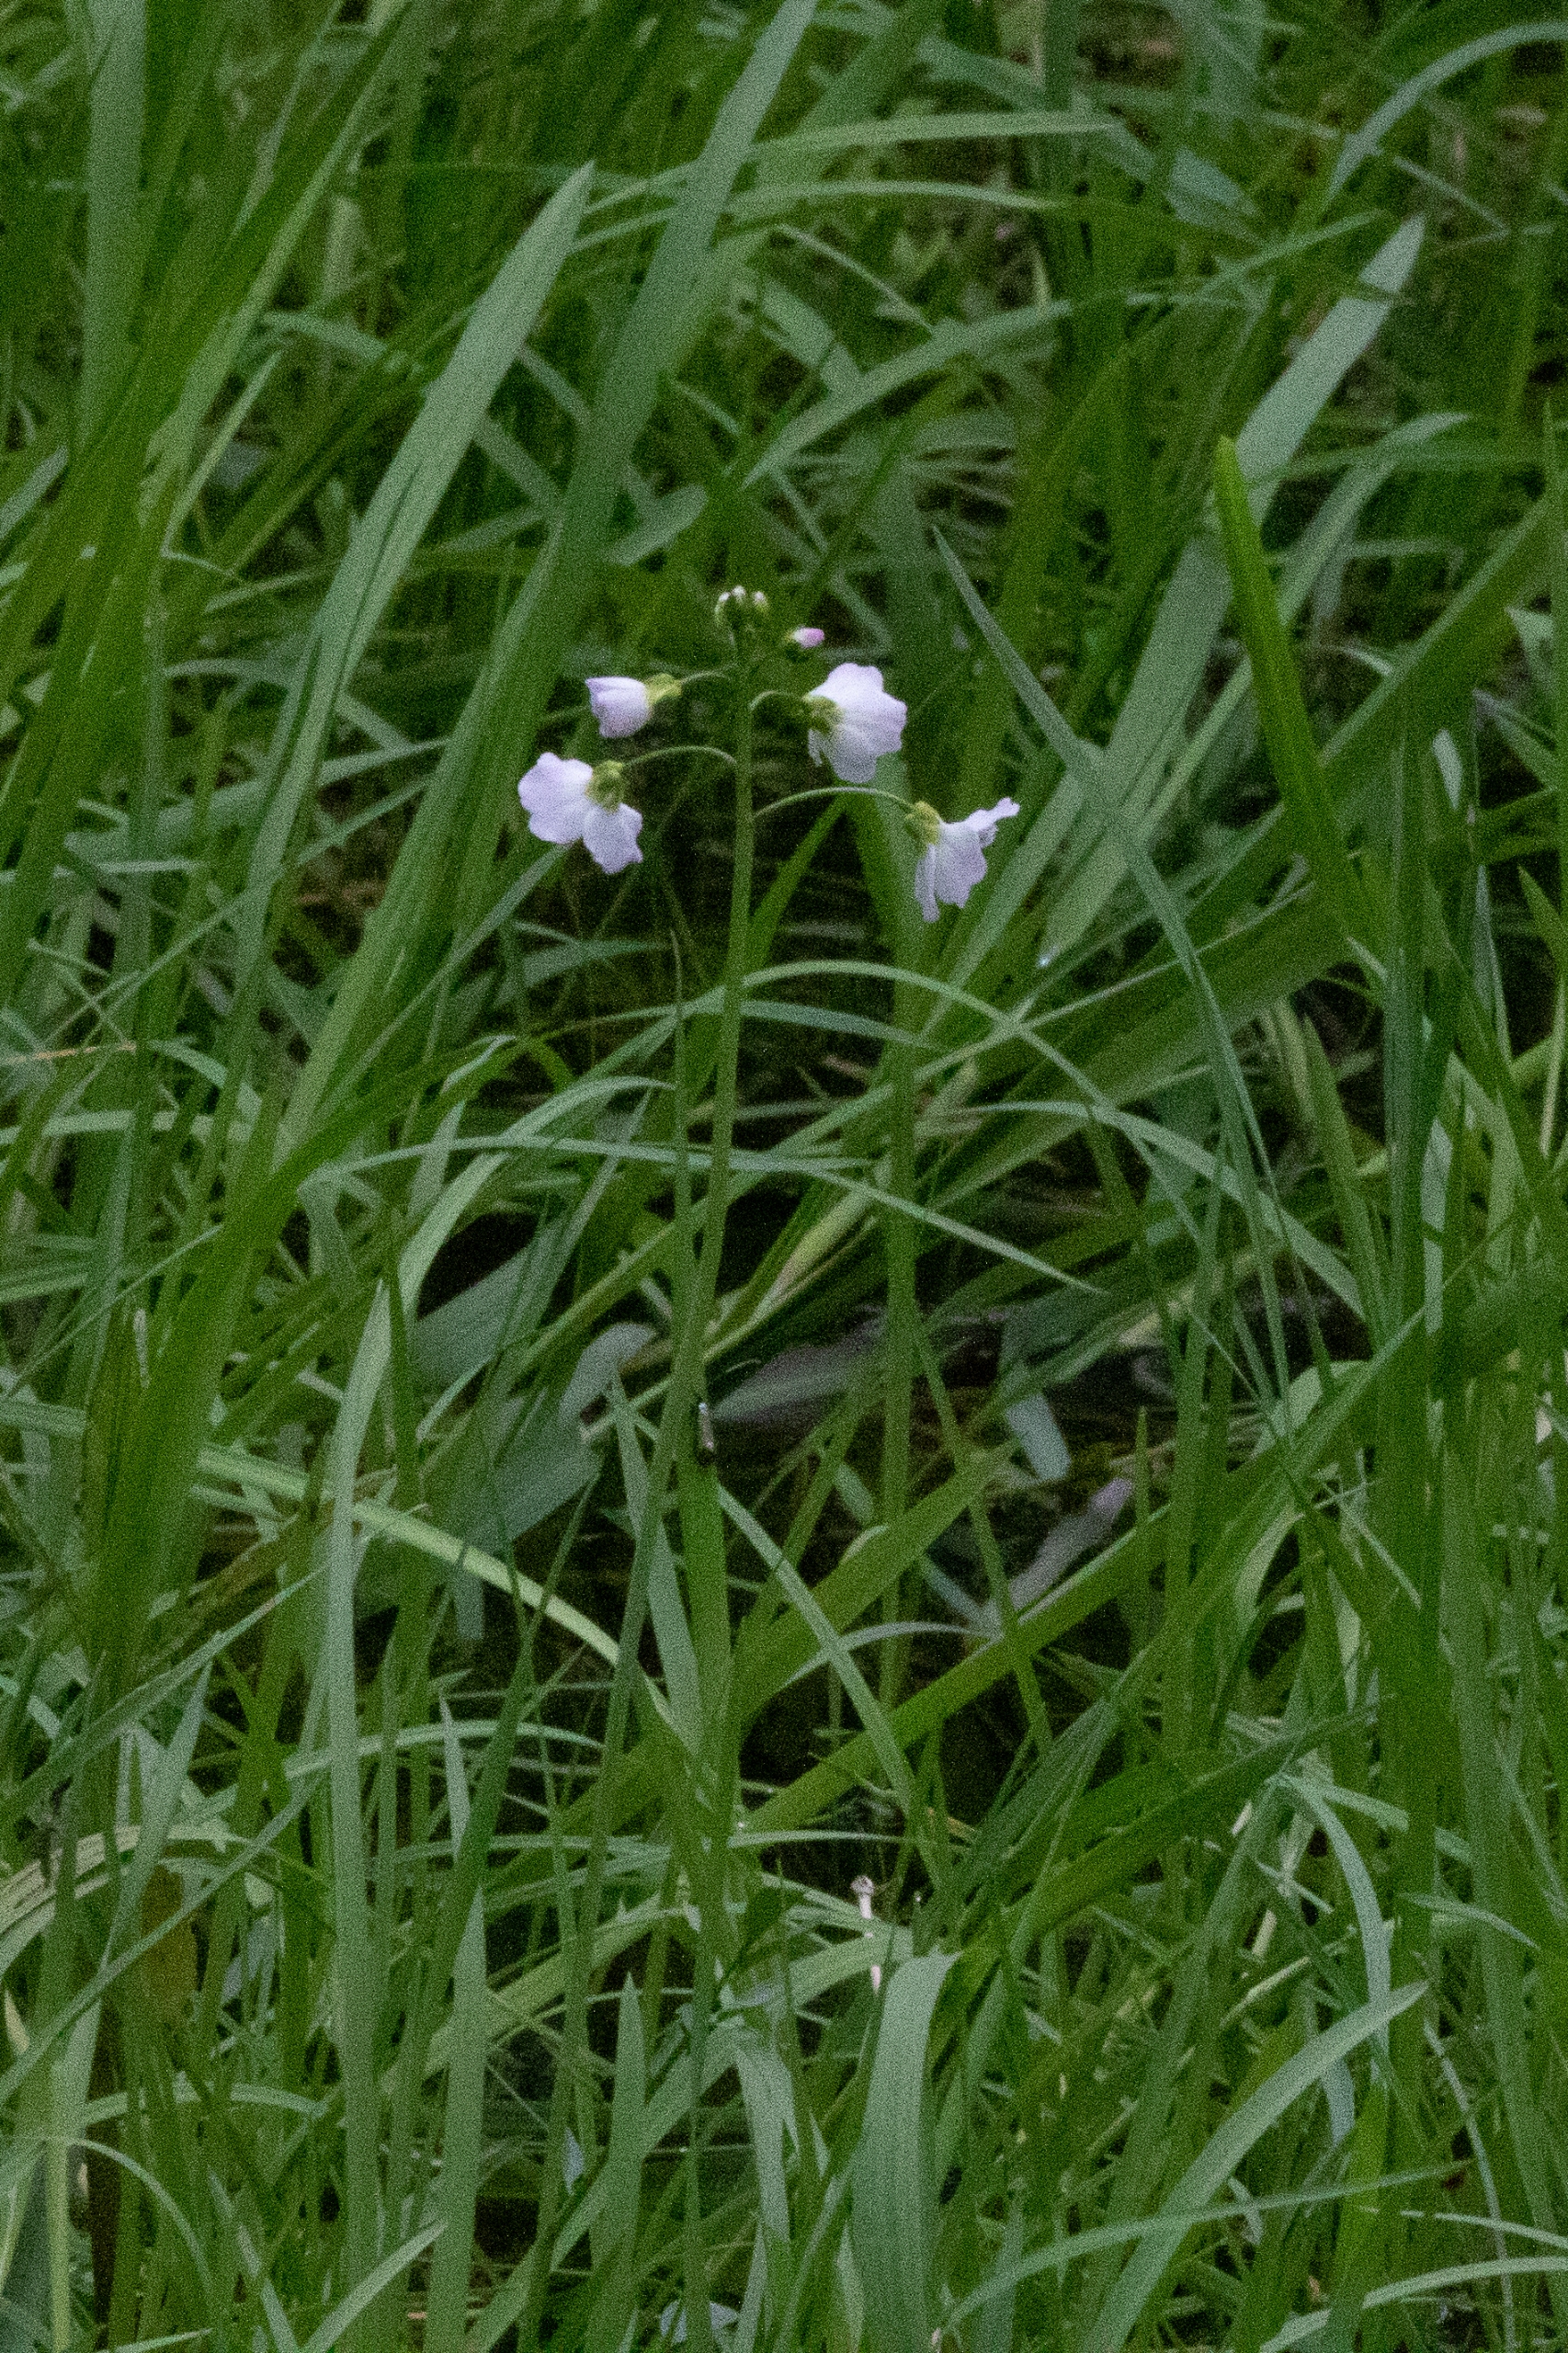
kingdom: Plantae
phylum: Tracheophyta
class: Magnoliopsida
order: Brassicales
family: Brassicaceae
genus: Cardamine
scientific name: Cardamine pratensis
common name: Engkarse
